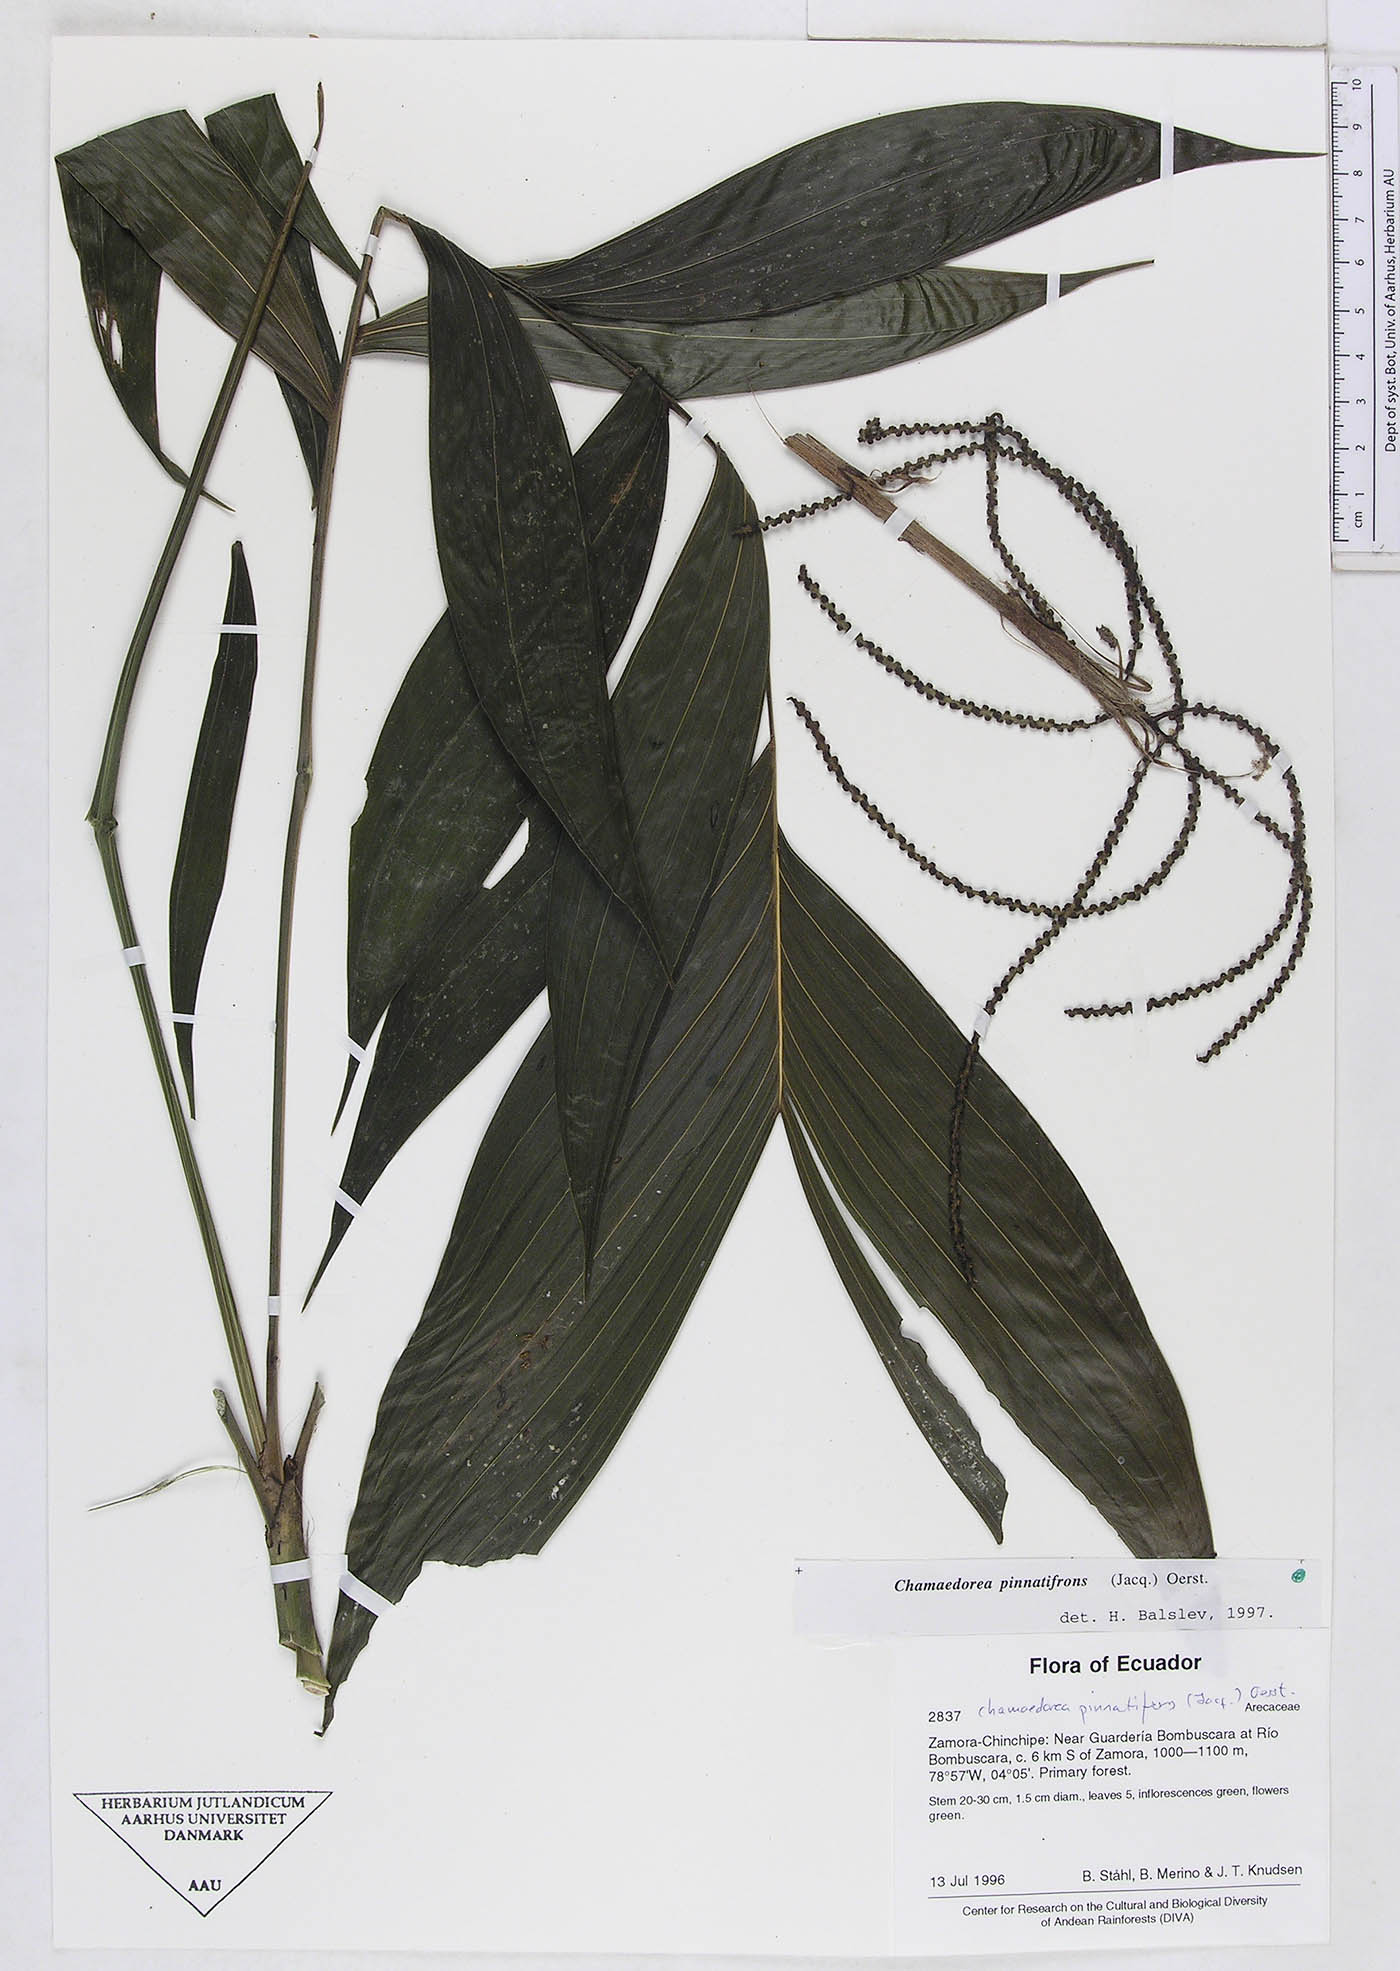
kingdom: Plantae
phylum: Tracheophyta
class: Liliopsida
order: Arecales
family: Arecaceae
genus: Chamaedorea
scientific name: Chamaedorea pinnatifrons
